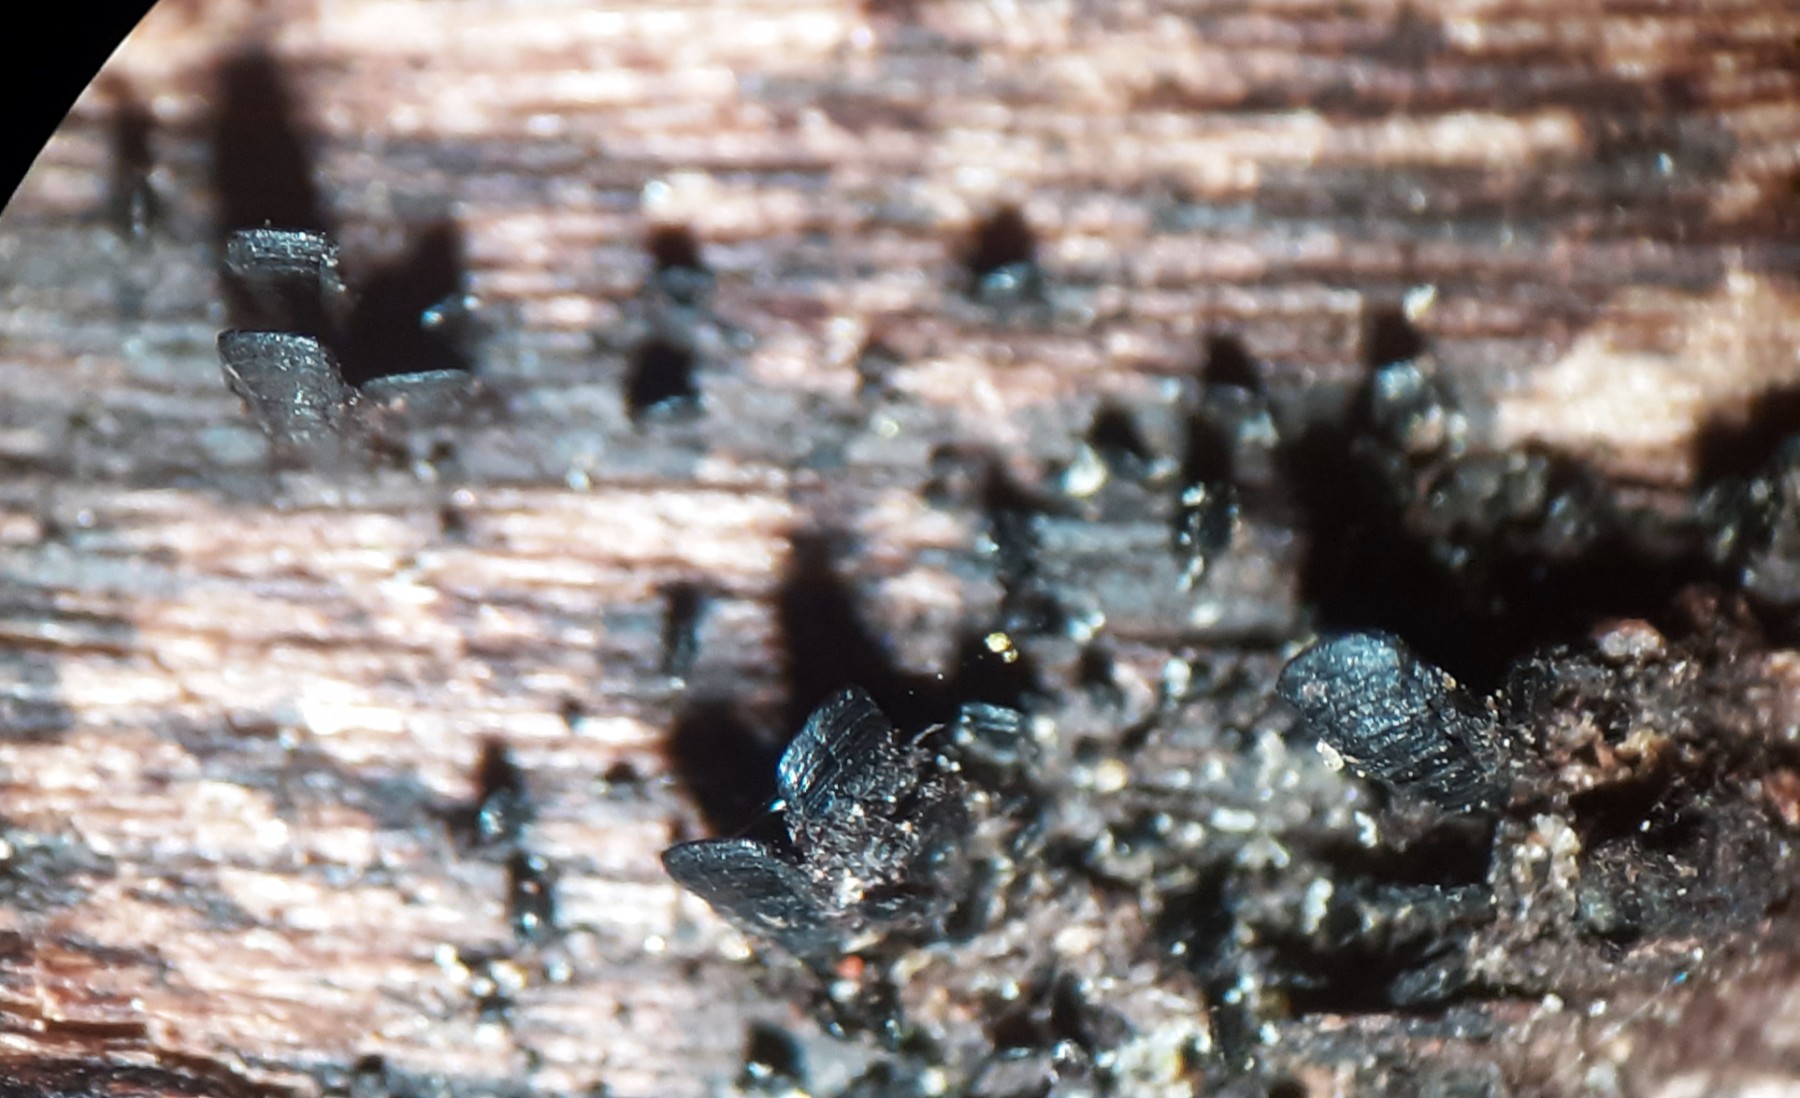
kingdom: Fungi
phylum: Ascomycota
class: Eurotiomycetes
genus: Glyphium
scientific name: Glyphium elatum
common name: kuløkse
